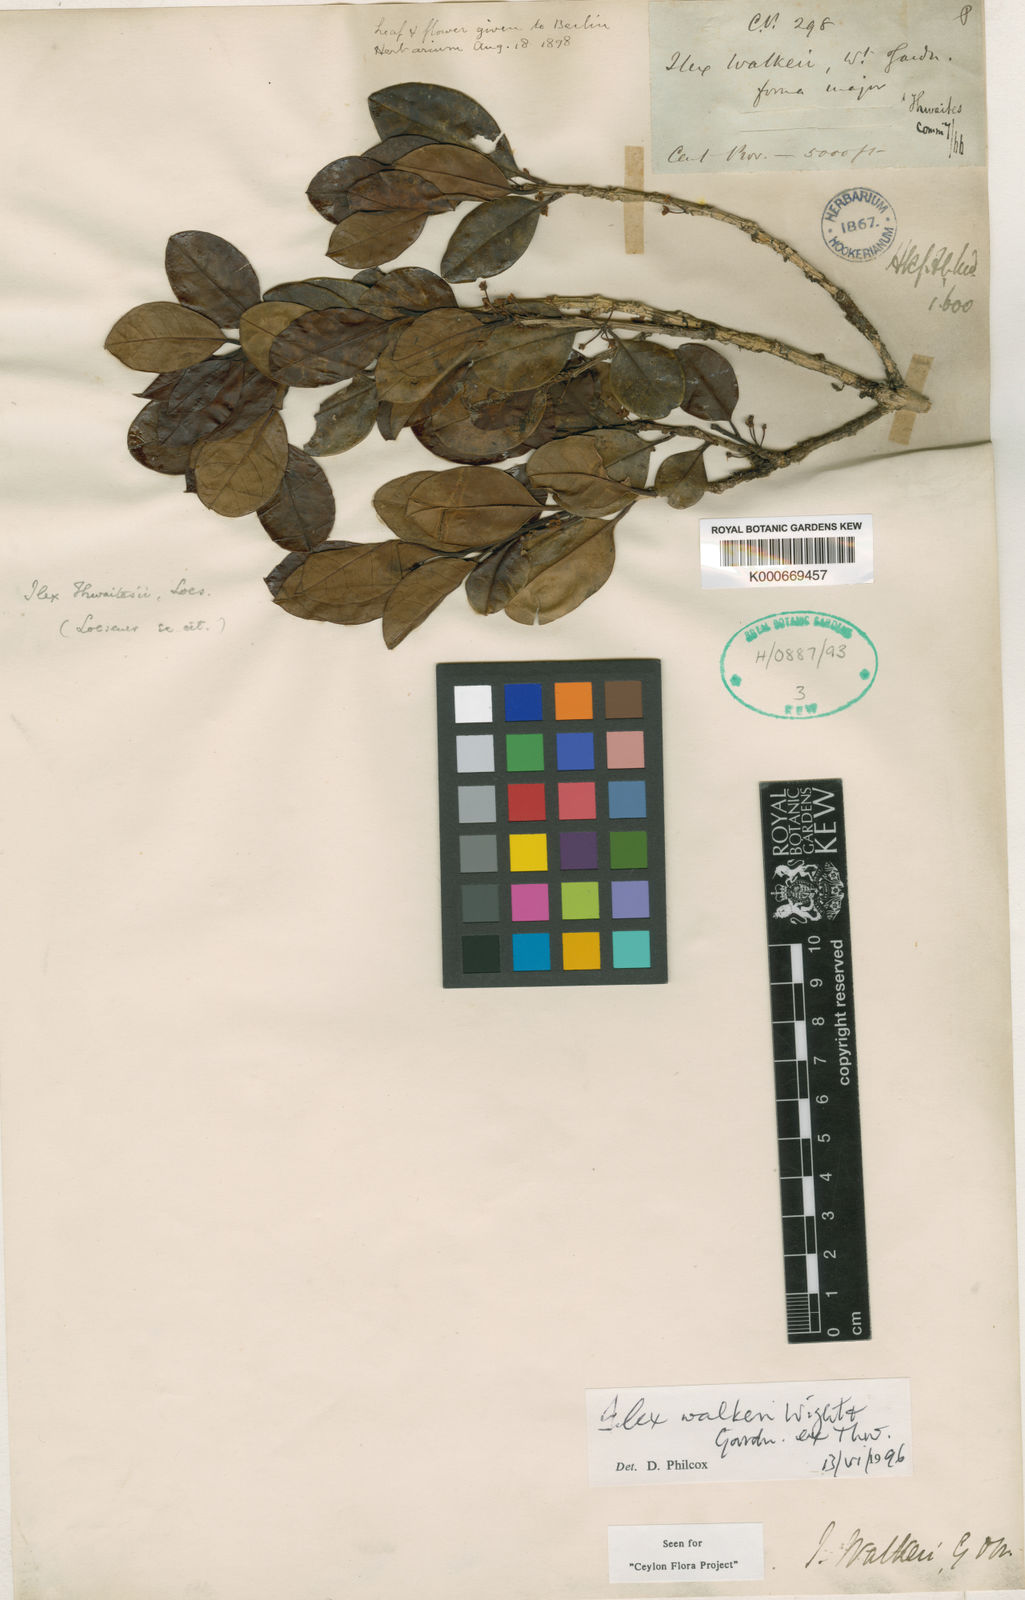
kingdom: Plantae
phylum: Tracheophyta
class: Magnoliopsida
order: Aquifoliales
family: Aquifoliaceae
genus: Ilex
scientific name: Ilex
